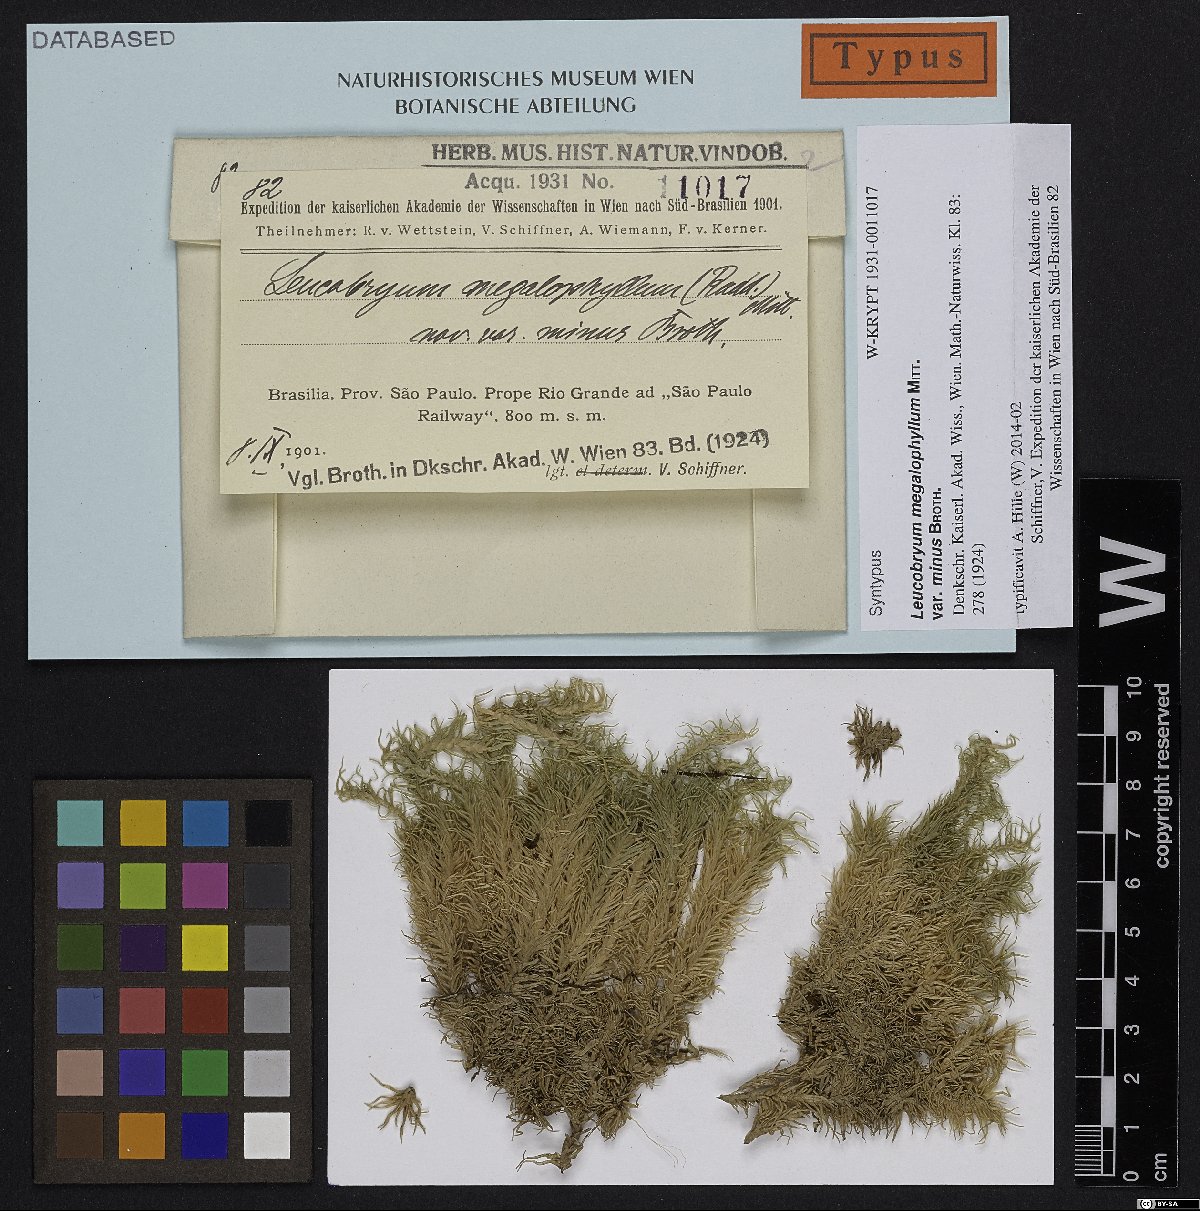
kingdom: Plantae
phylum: Bryophyta
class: Bryopsida
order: Dicranales
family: Leucobryaceae
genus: Leucobryum
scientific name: Leucobryum albicans
